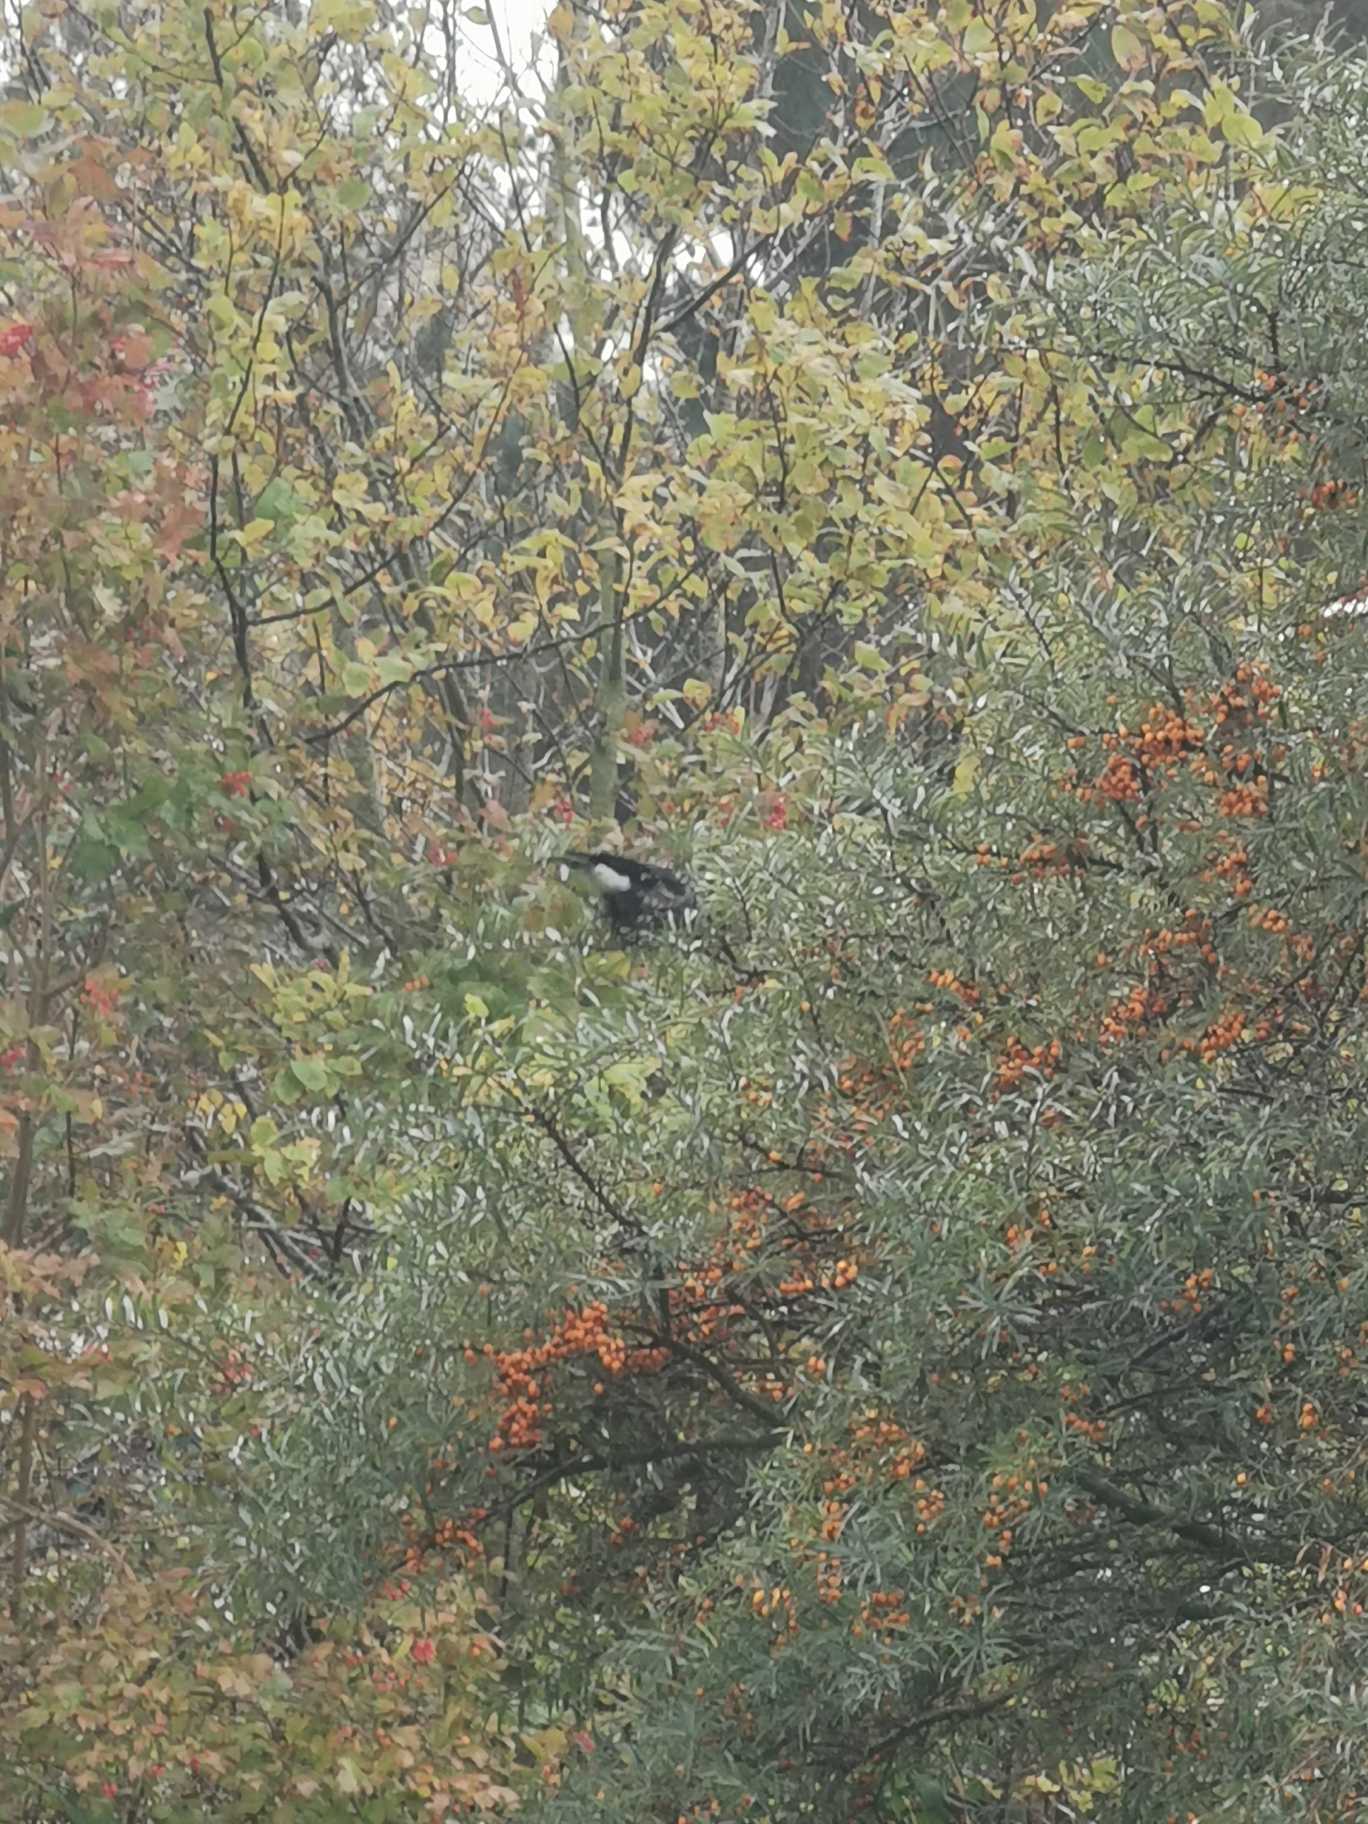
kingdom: Animalia
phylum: Chordata
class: Aves
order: Passeriformes
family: Corvidae
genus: Nucifraga
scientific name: Nucifraga caryocatactes
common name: Nøddekrige
